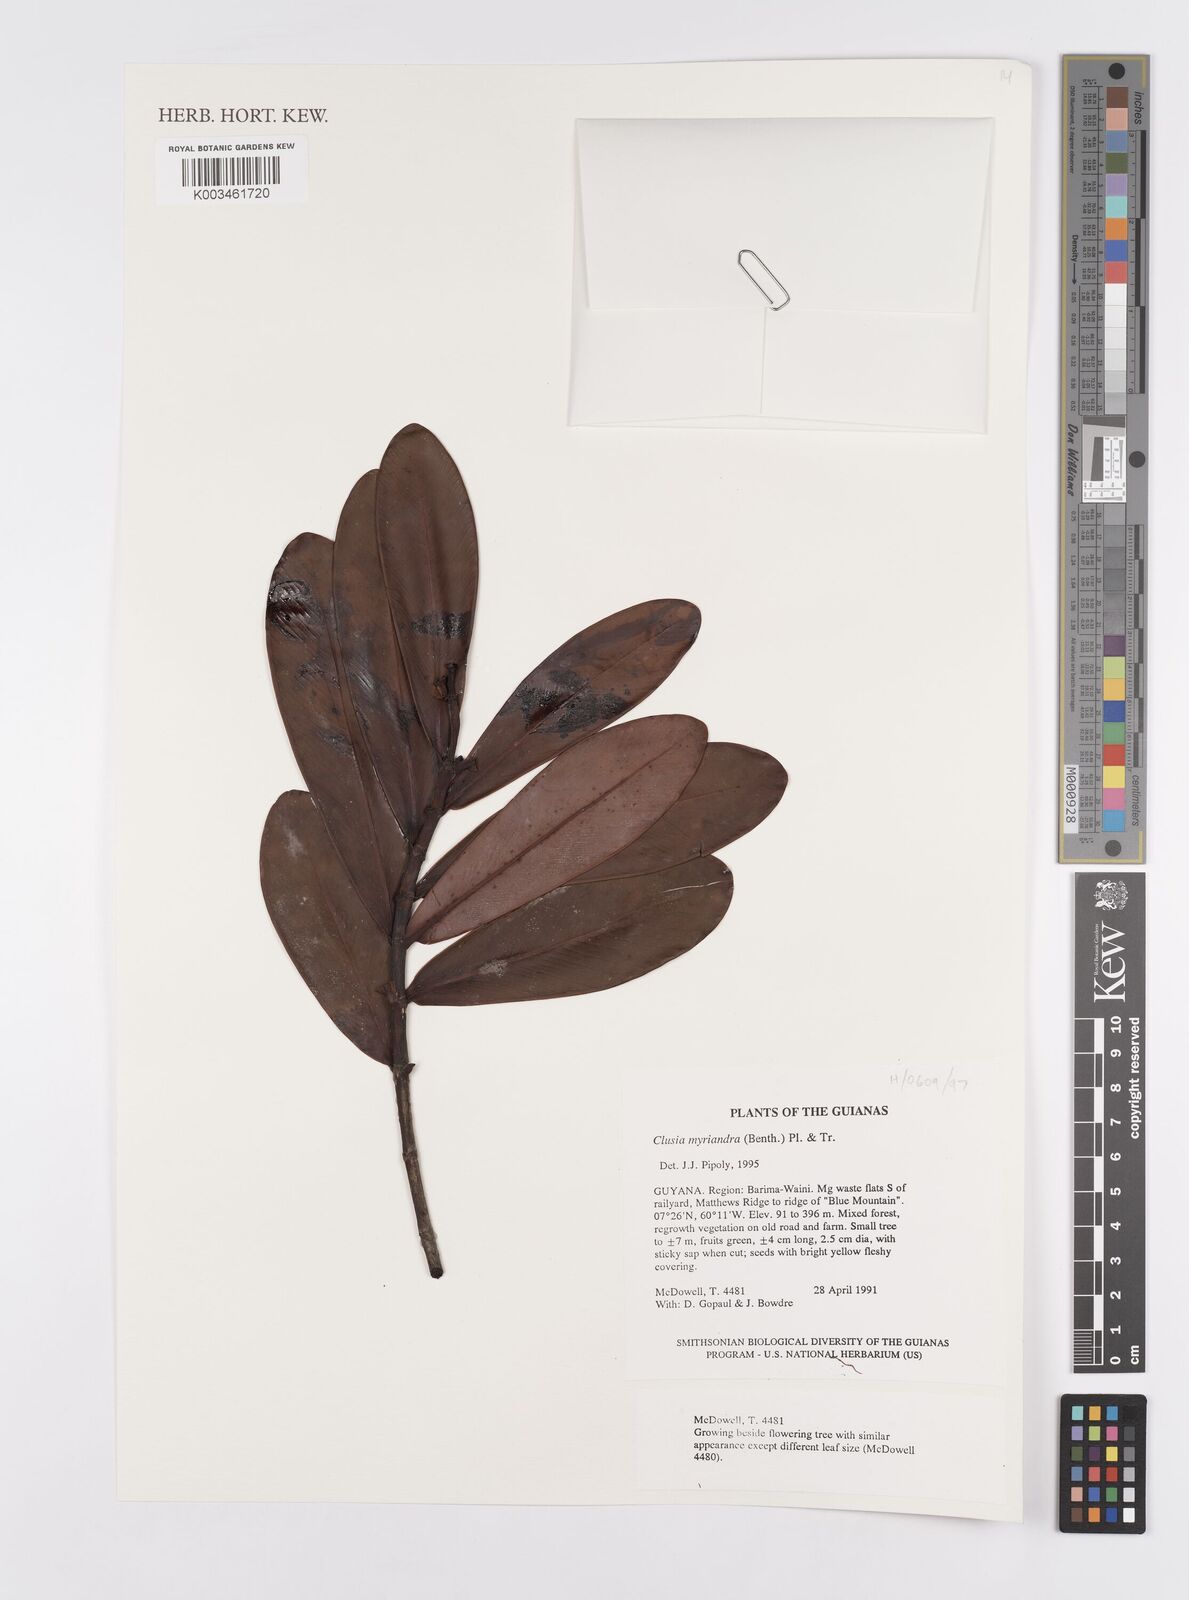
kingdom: Plantae
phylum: Tracheophyta
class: Magnoliopsida
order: Malpighiales
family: Clusiaceae
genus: Clusia
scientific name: Clusia myriandra
